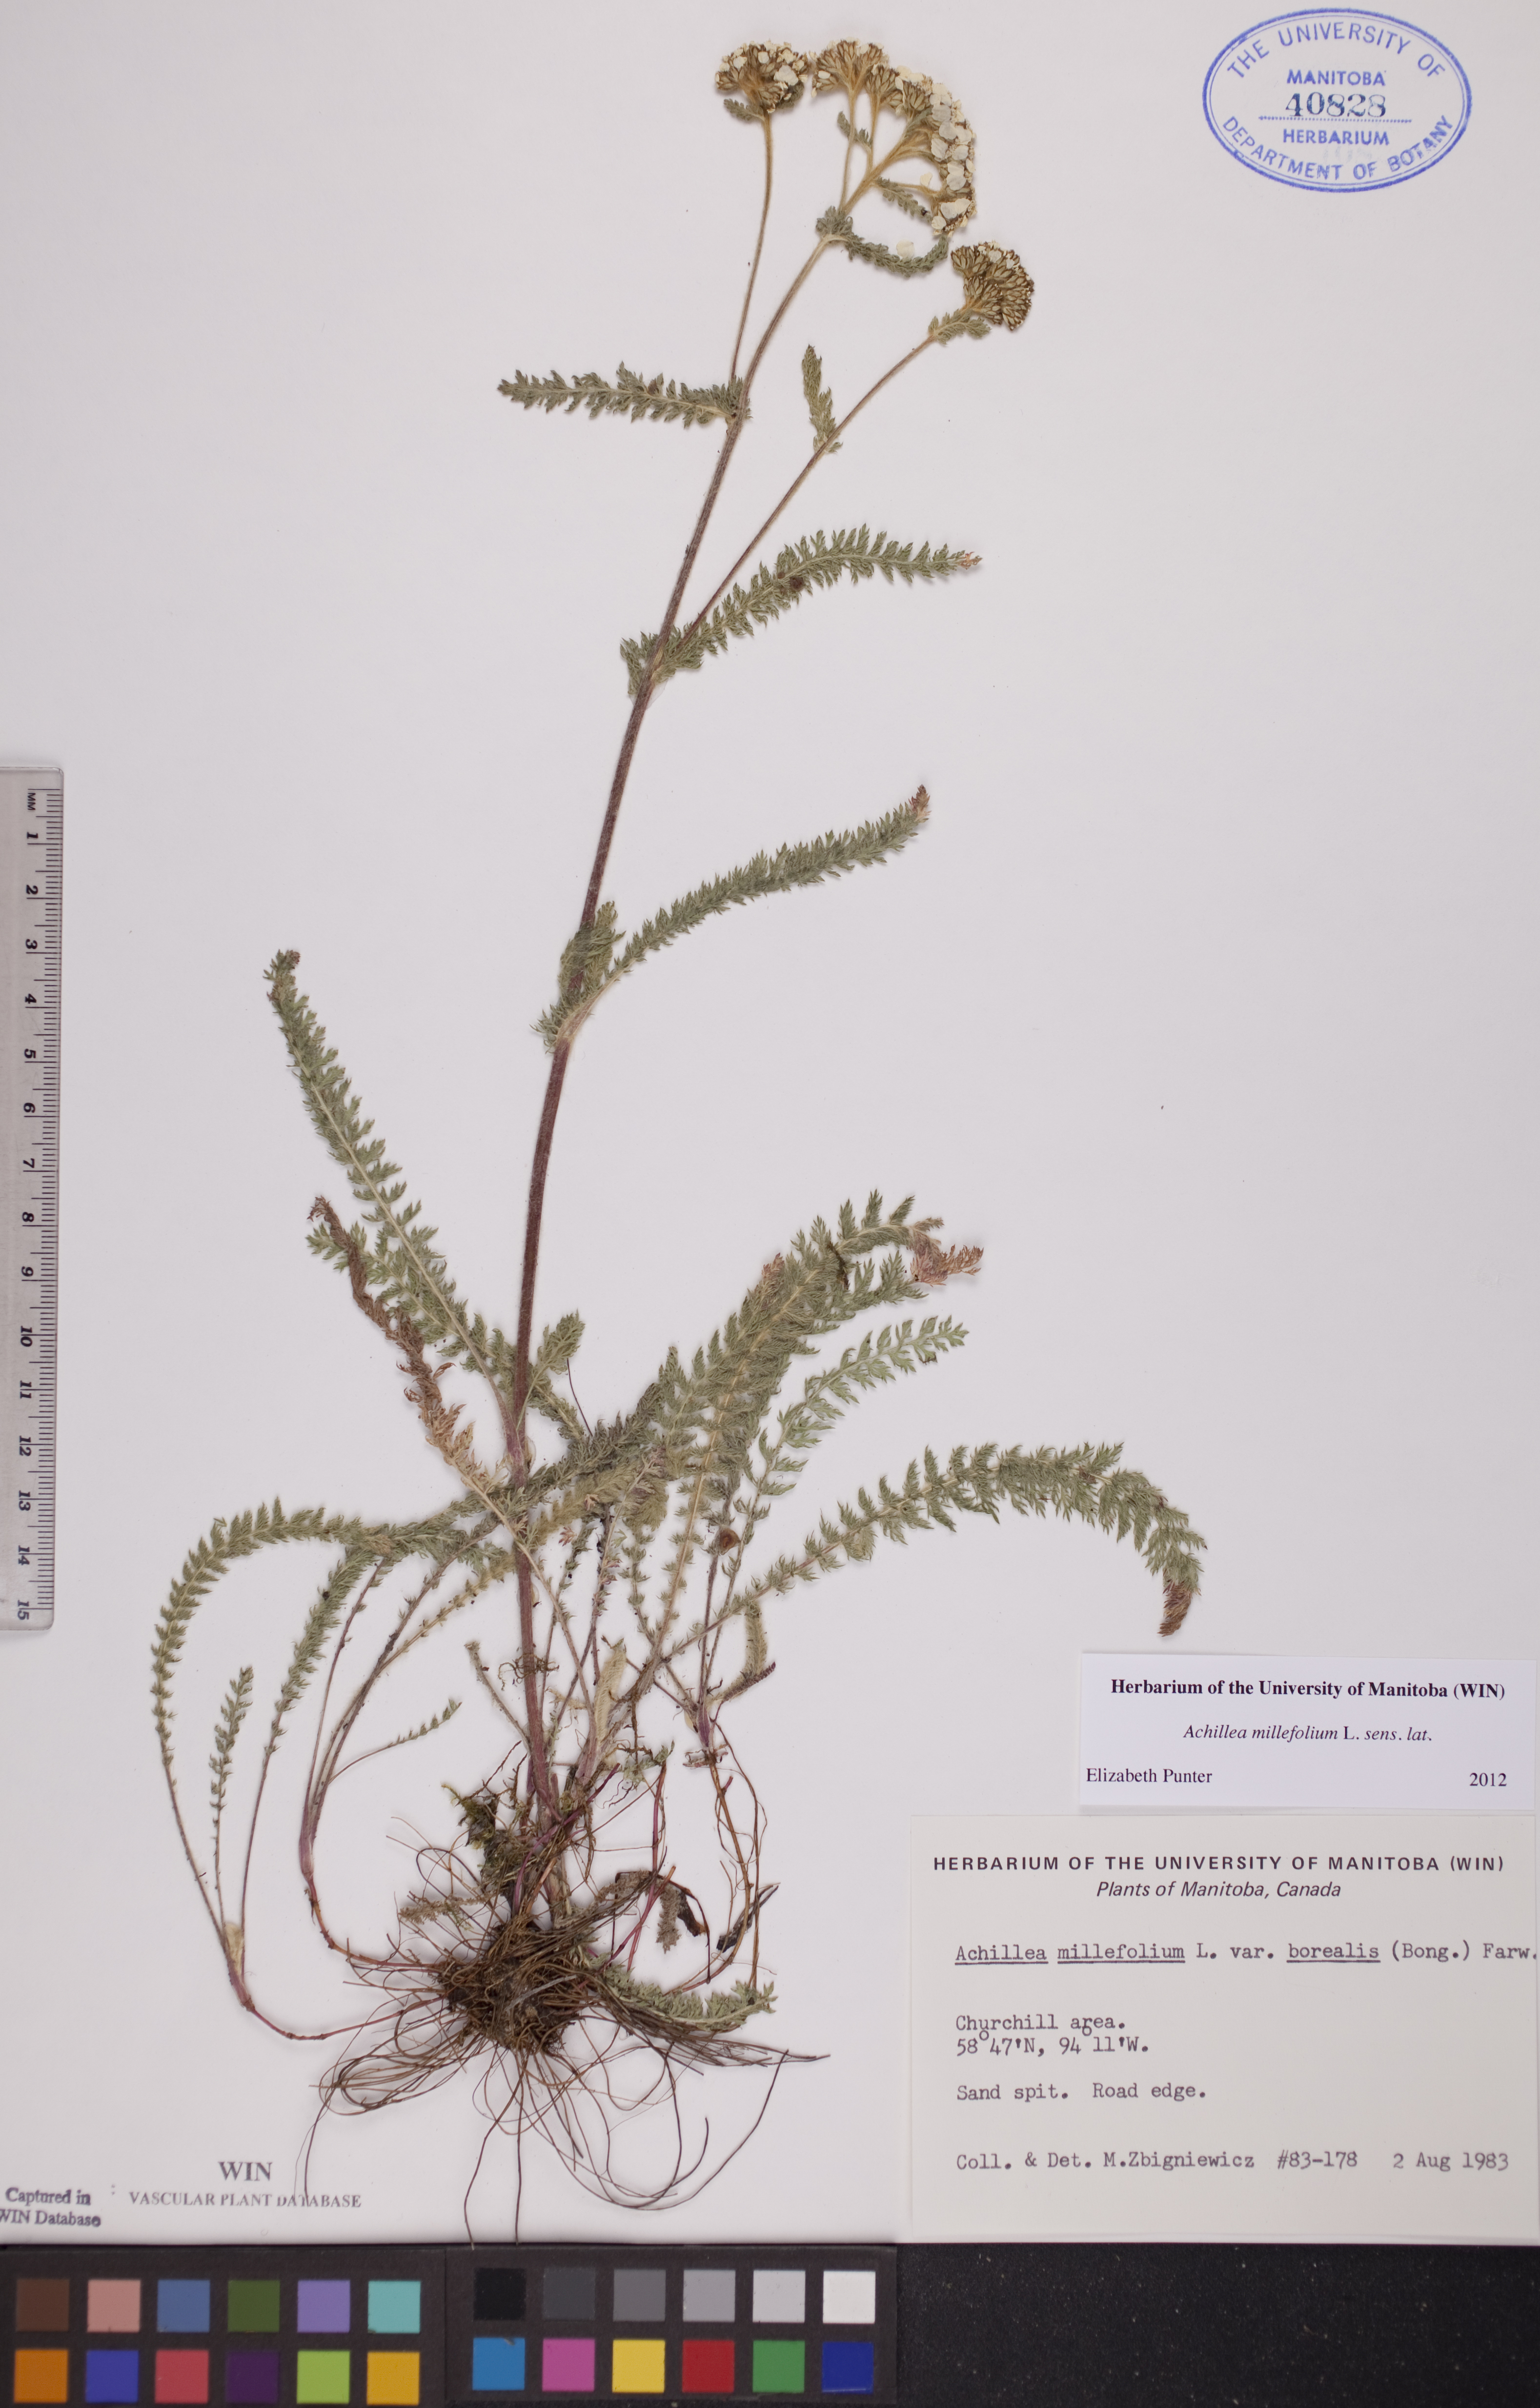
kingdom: Plantae
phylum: Tracheophyta
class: Magnoliopsida
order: Asterales
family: Asteraceae
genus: Achillea
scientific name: Achillea millefolium
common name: Yarrow
